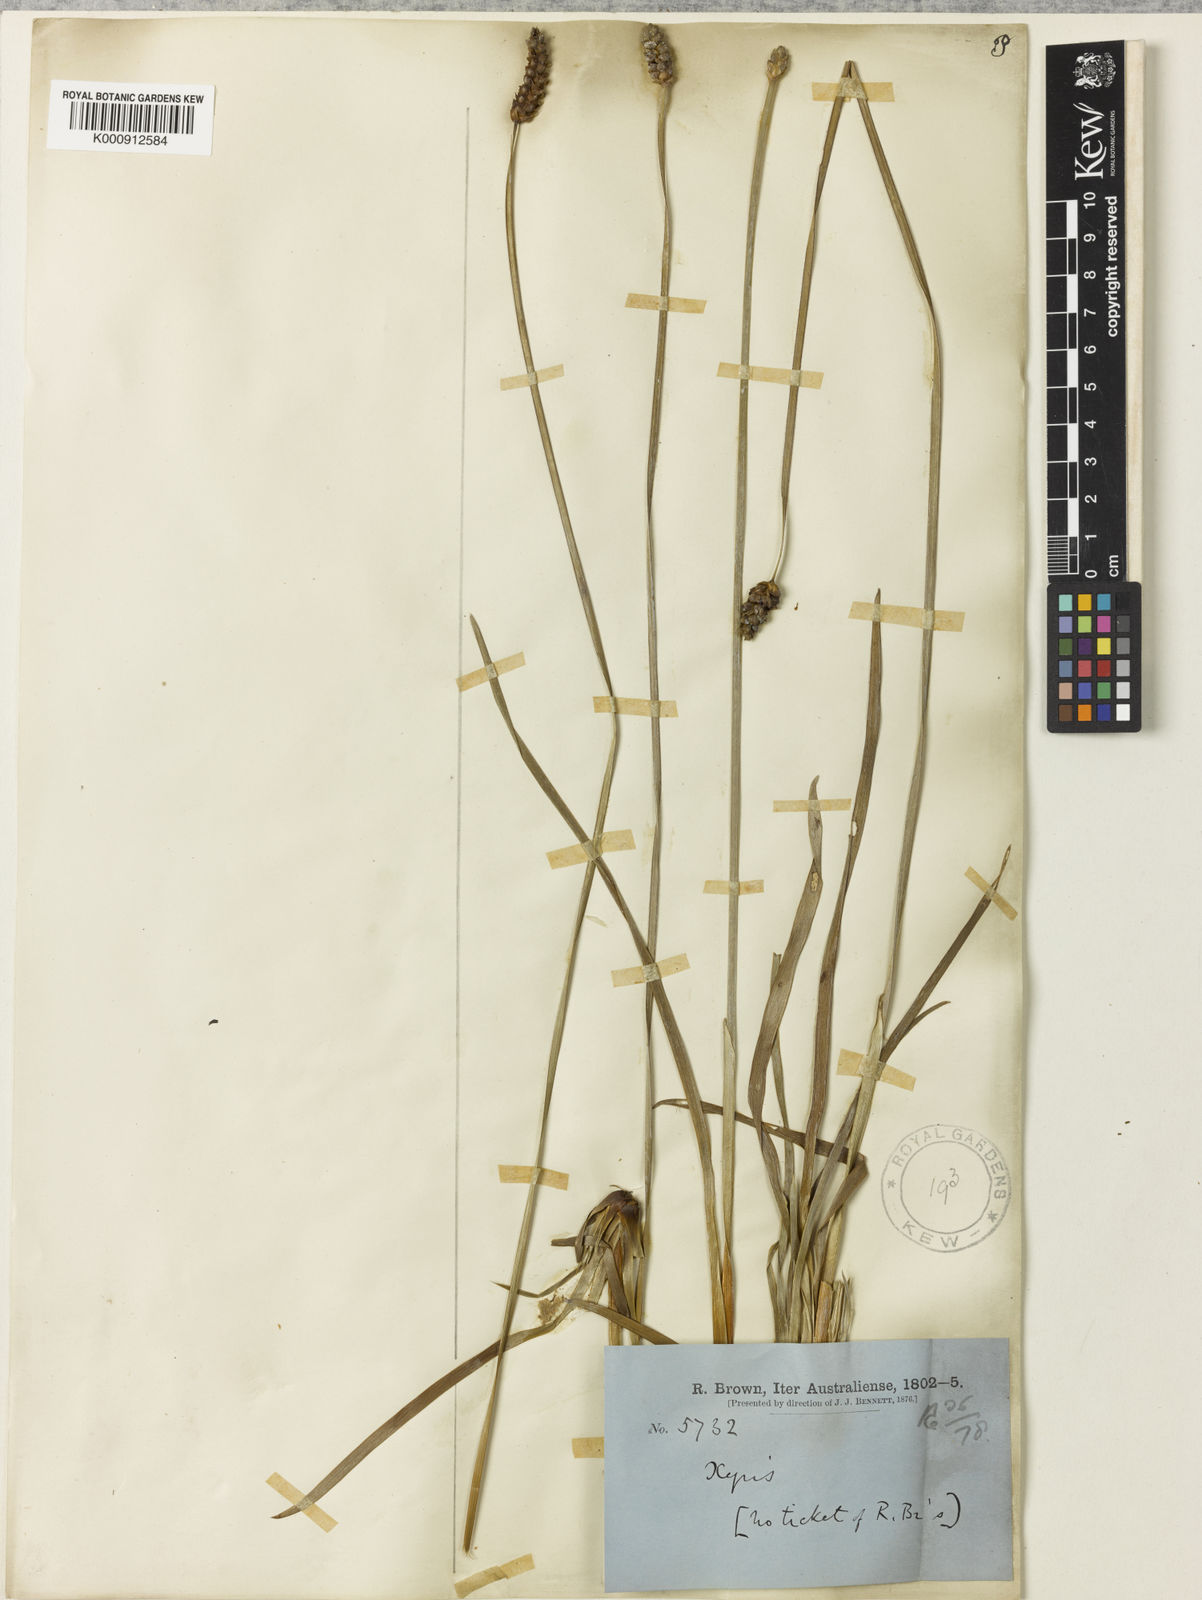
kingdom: Plantae
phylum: Tracheophyta
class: Liliopsida
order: Poales
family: Xyridaceae
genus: Xyris
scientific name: Xyris complanata
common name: Hawai'i yelloweyed grass
